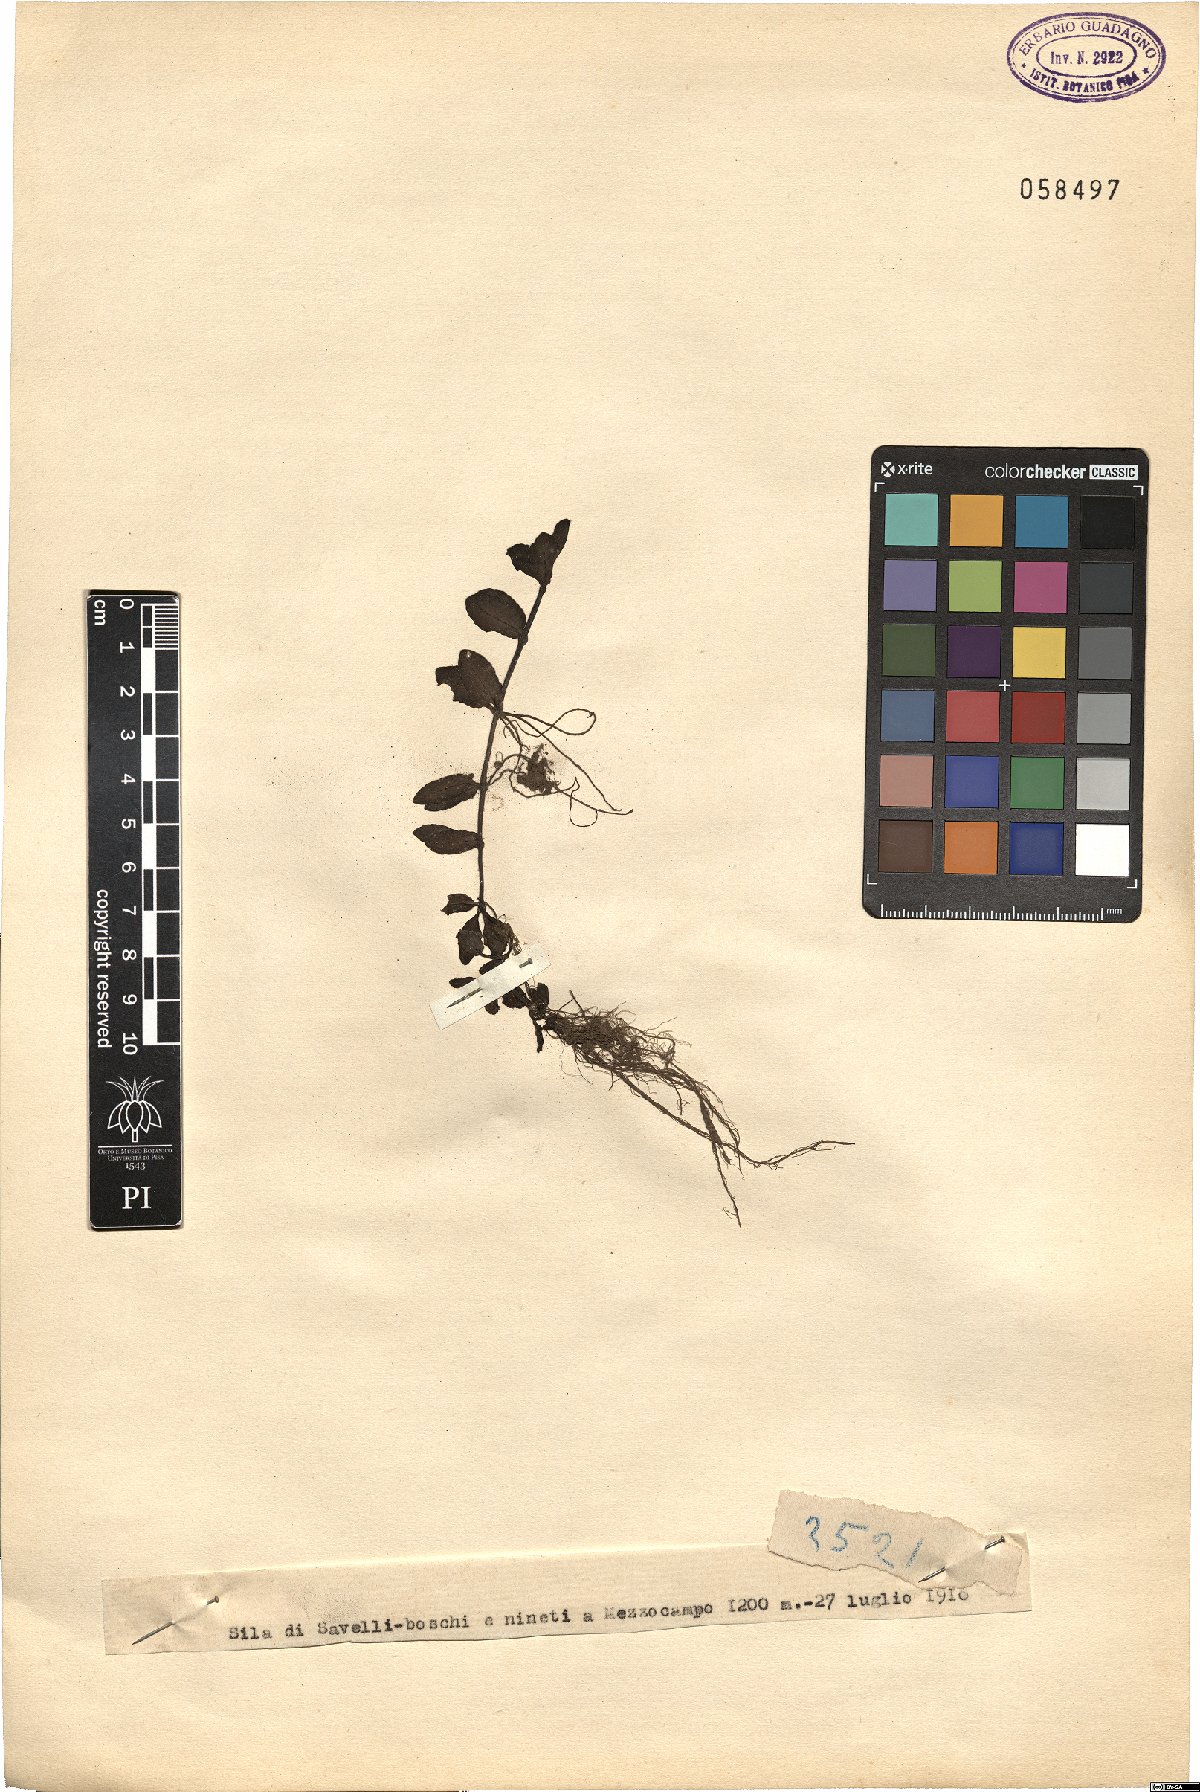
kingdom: Plantae
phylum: Tracheophyta
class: Magnoliopsida
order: Lamiales
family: Plantaginaceae
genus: Veronica
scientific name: Veronica
